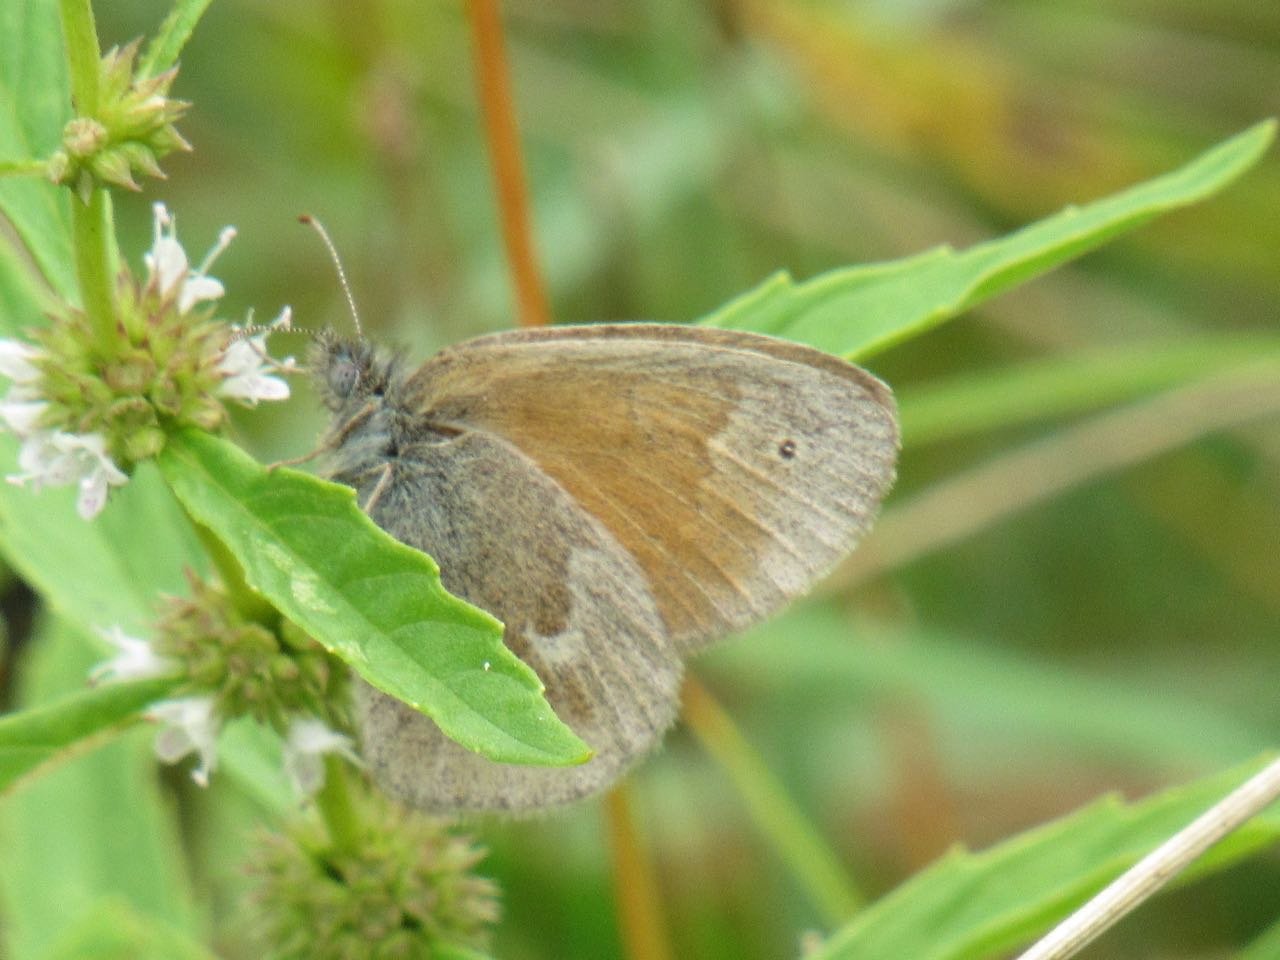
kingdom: Animalia
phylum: Arthropoda
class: Insecta
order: Lepidoptera
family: Nymphalidae
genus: Coenonympha
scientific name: Coenonympha tullia
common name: Large Heath
